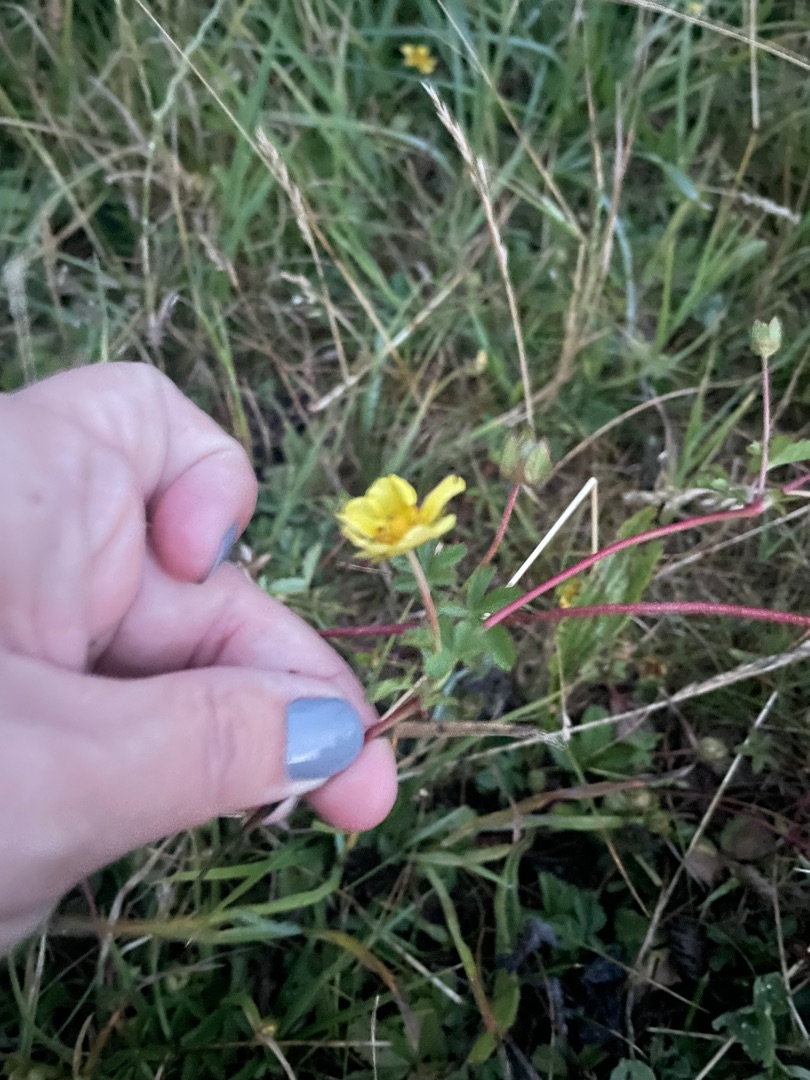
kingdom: Plantae
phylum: Tracheophyta
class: Magnoliopsida
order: Rosales
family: Rosaceae
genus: Potentilla
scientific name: Potentilla reptans
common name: Krybende potentil
